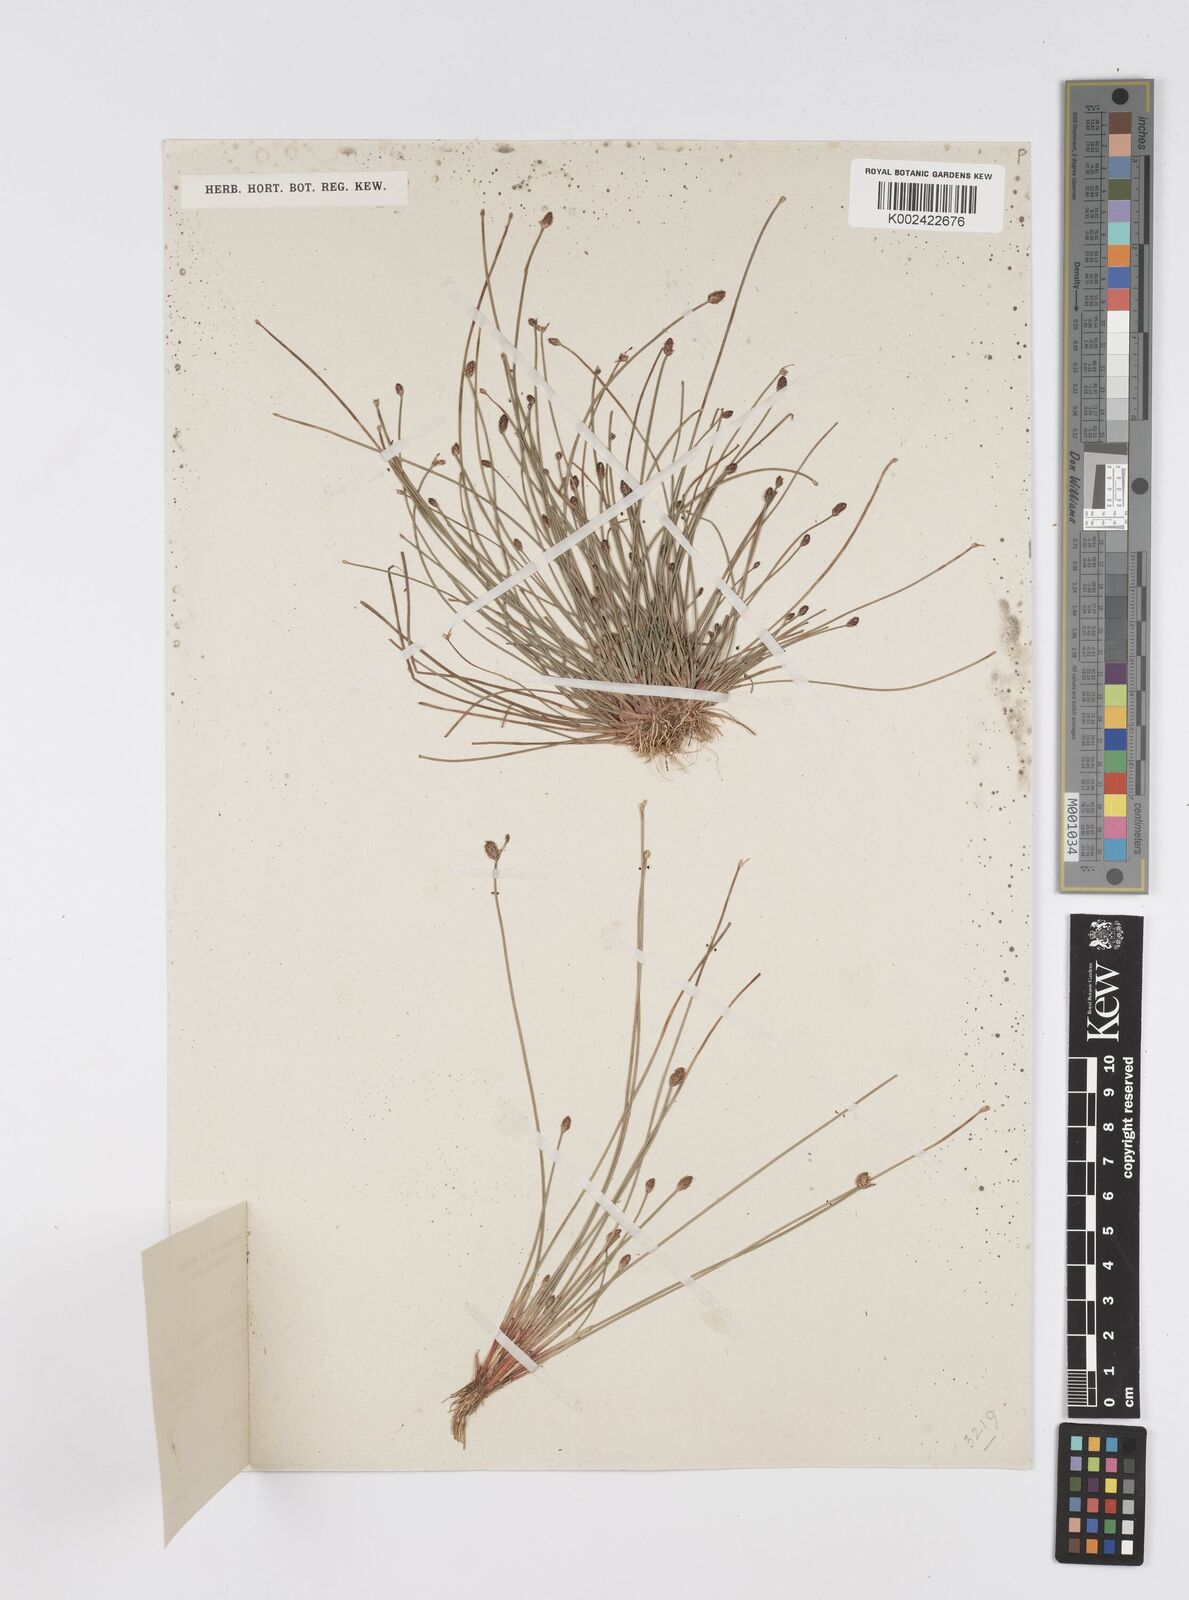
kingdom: Plantae
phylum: Tracheophyta
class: Liliopsida
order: Poales
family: Cyperaceae
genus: Eleocharis
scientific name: Eleocharis congesta
